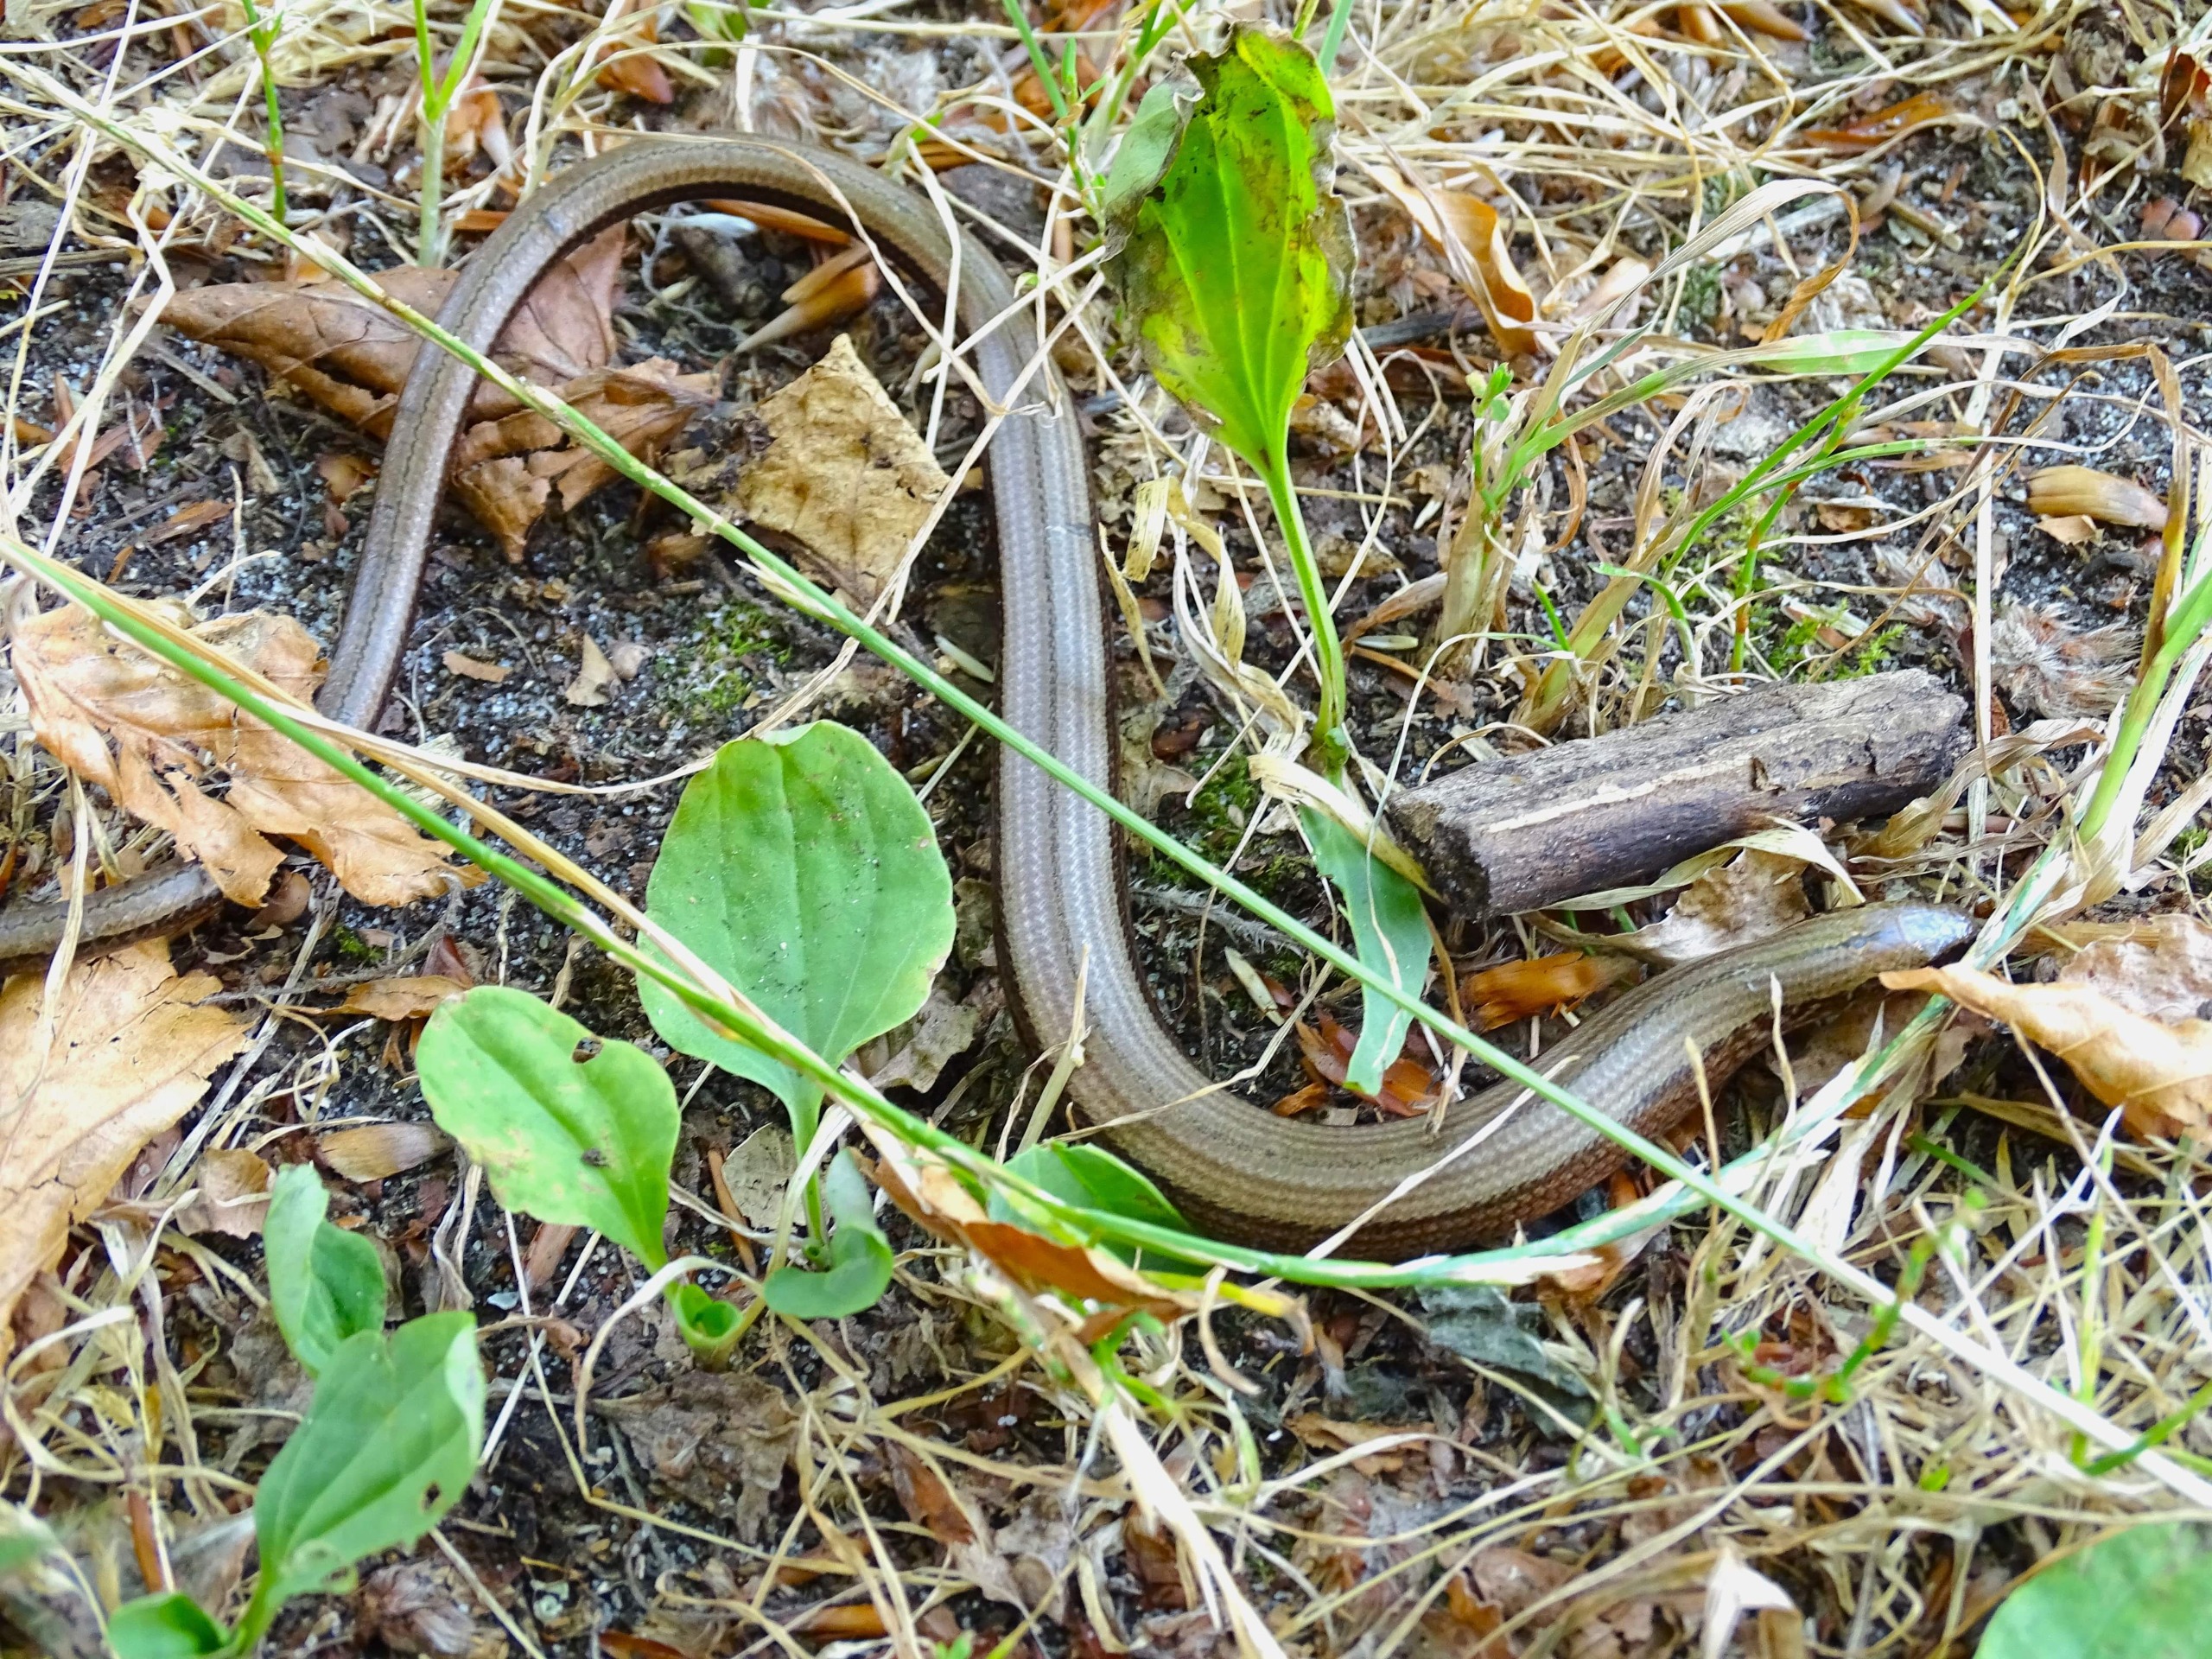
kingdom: Animalia
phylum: Chordata
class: Squamata
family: Anguidae
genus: Anguis
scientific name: Anguis fragilis
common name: Stålorm
